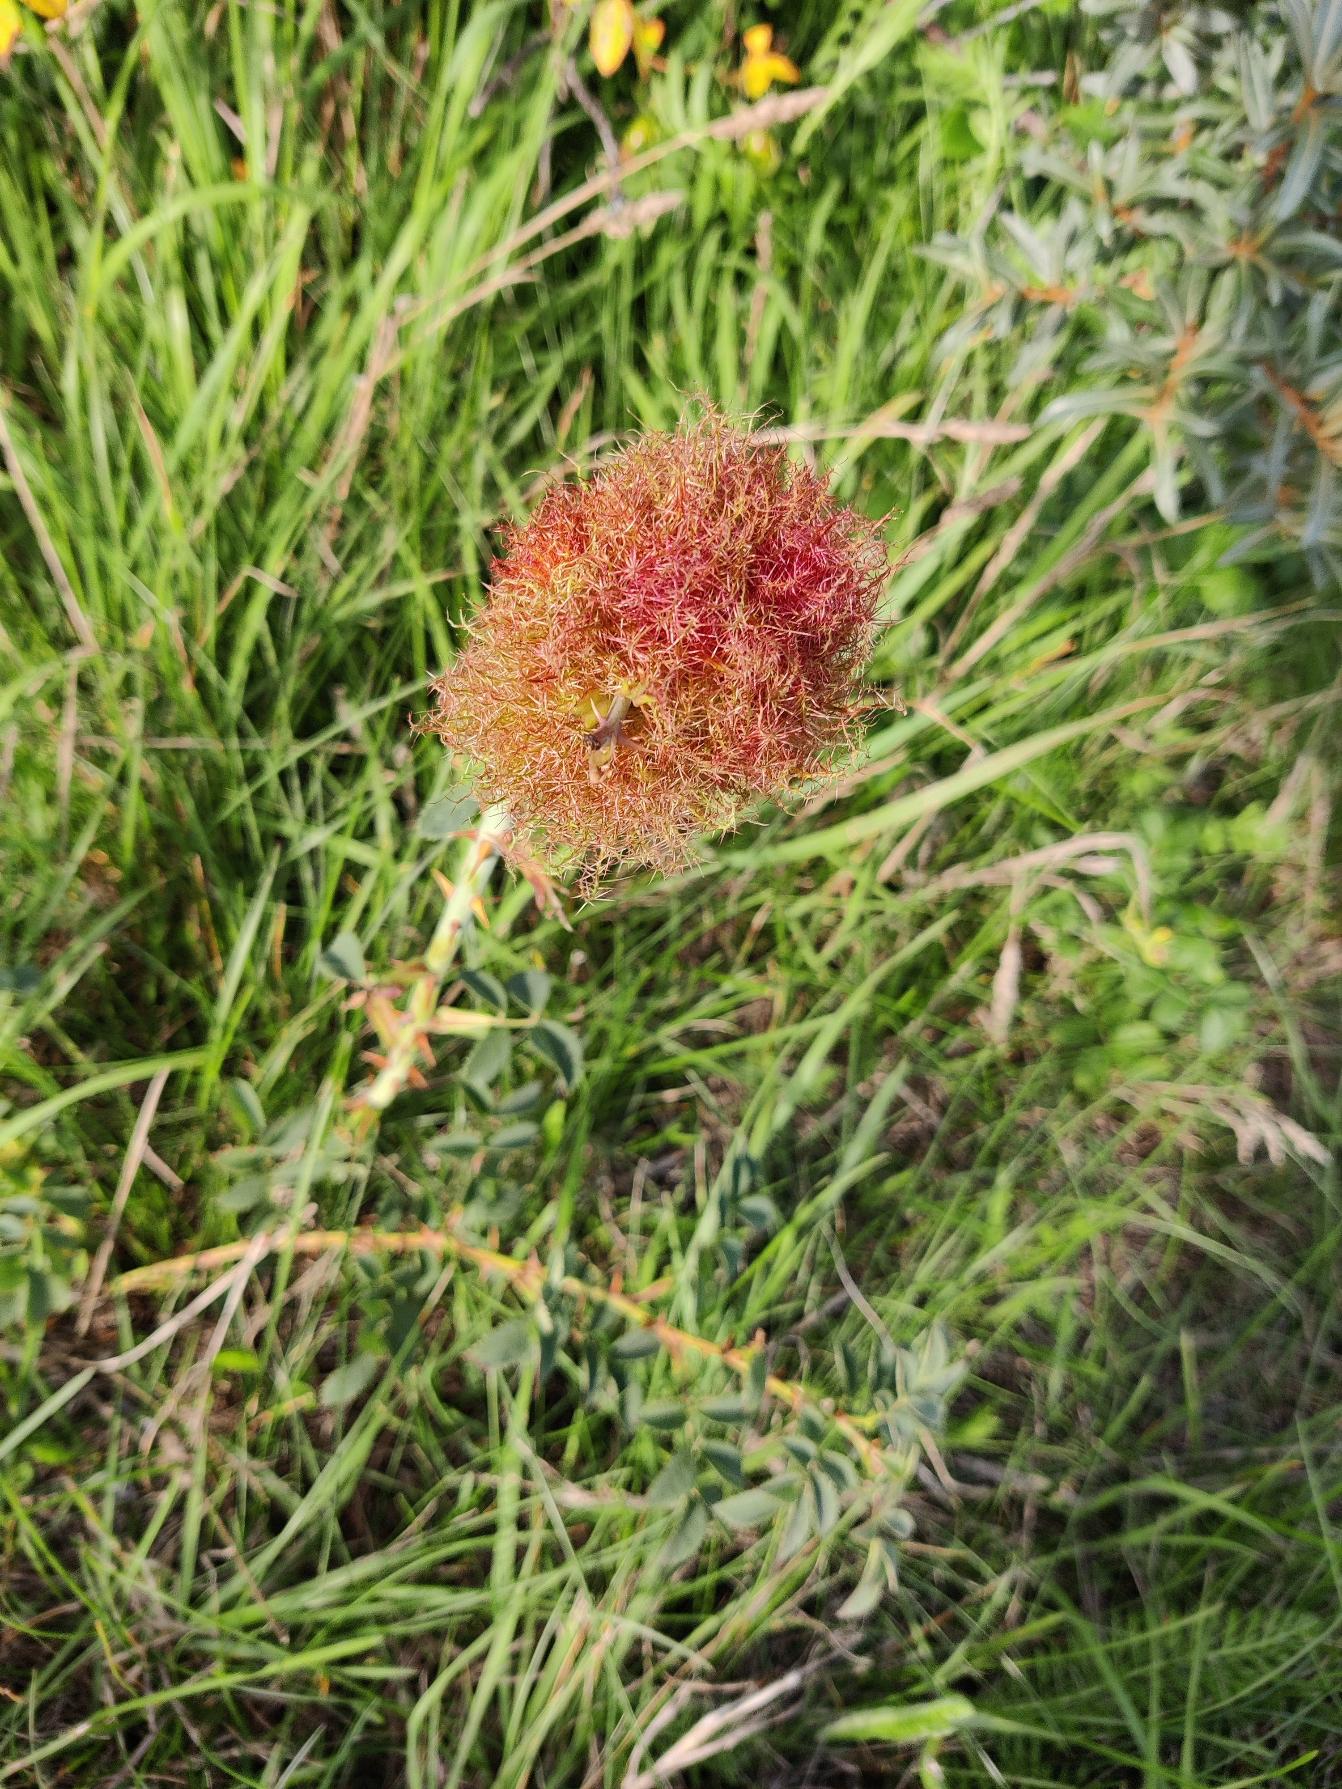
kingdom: Animalia
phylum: Arthropoda
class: Insecta
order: Hymenoptera
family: Cynipidae
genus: Diplolepis
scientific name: Diplolepis rosae
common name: Bedeguargalhveps
